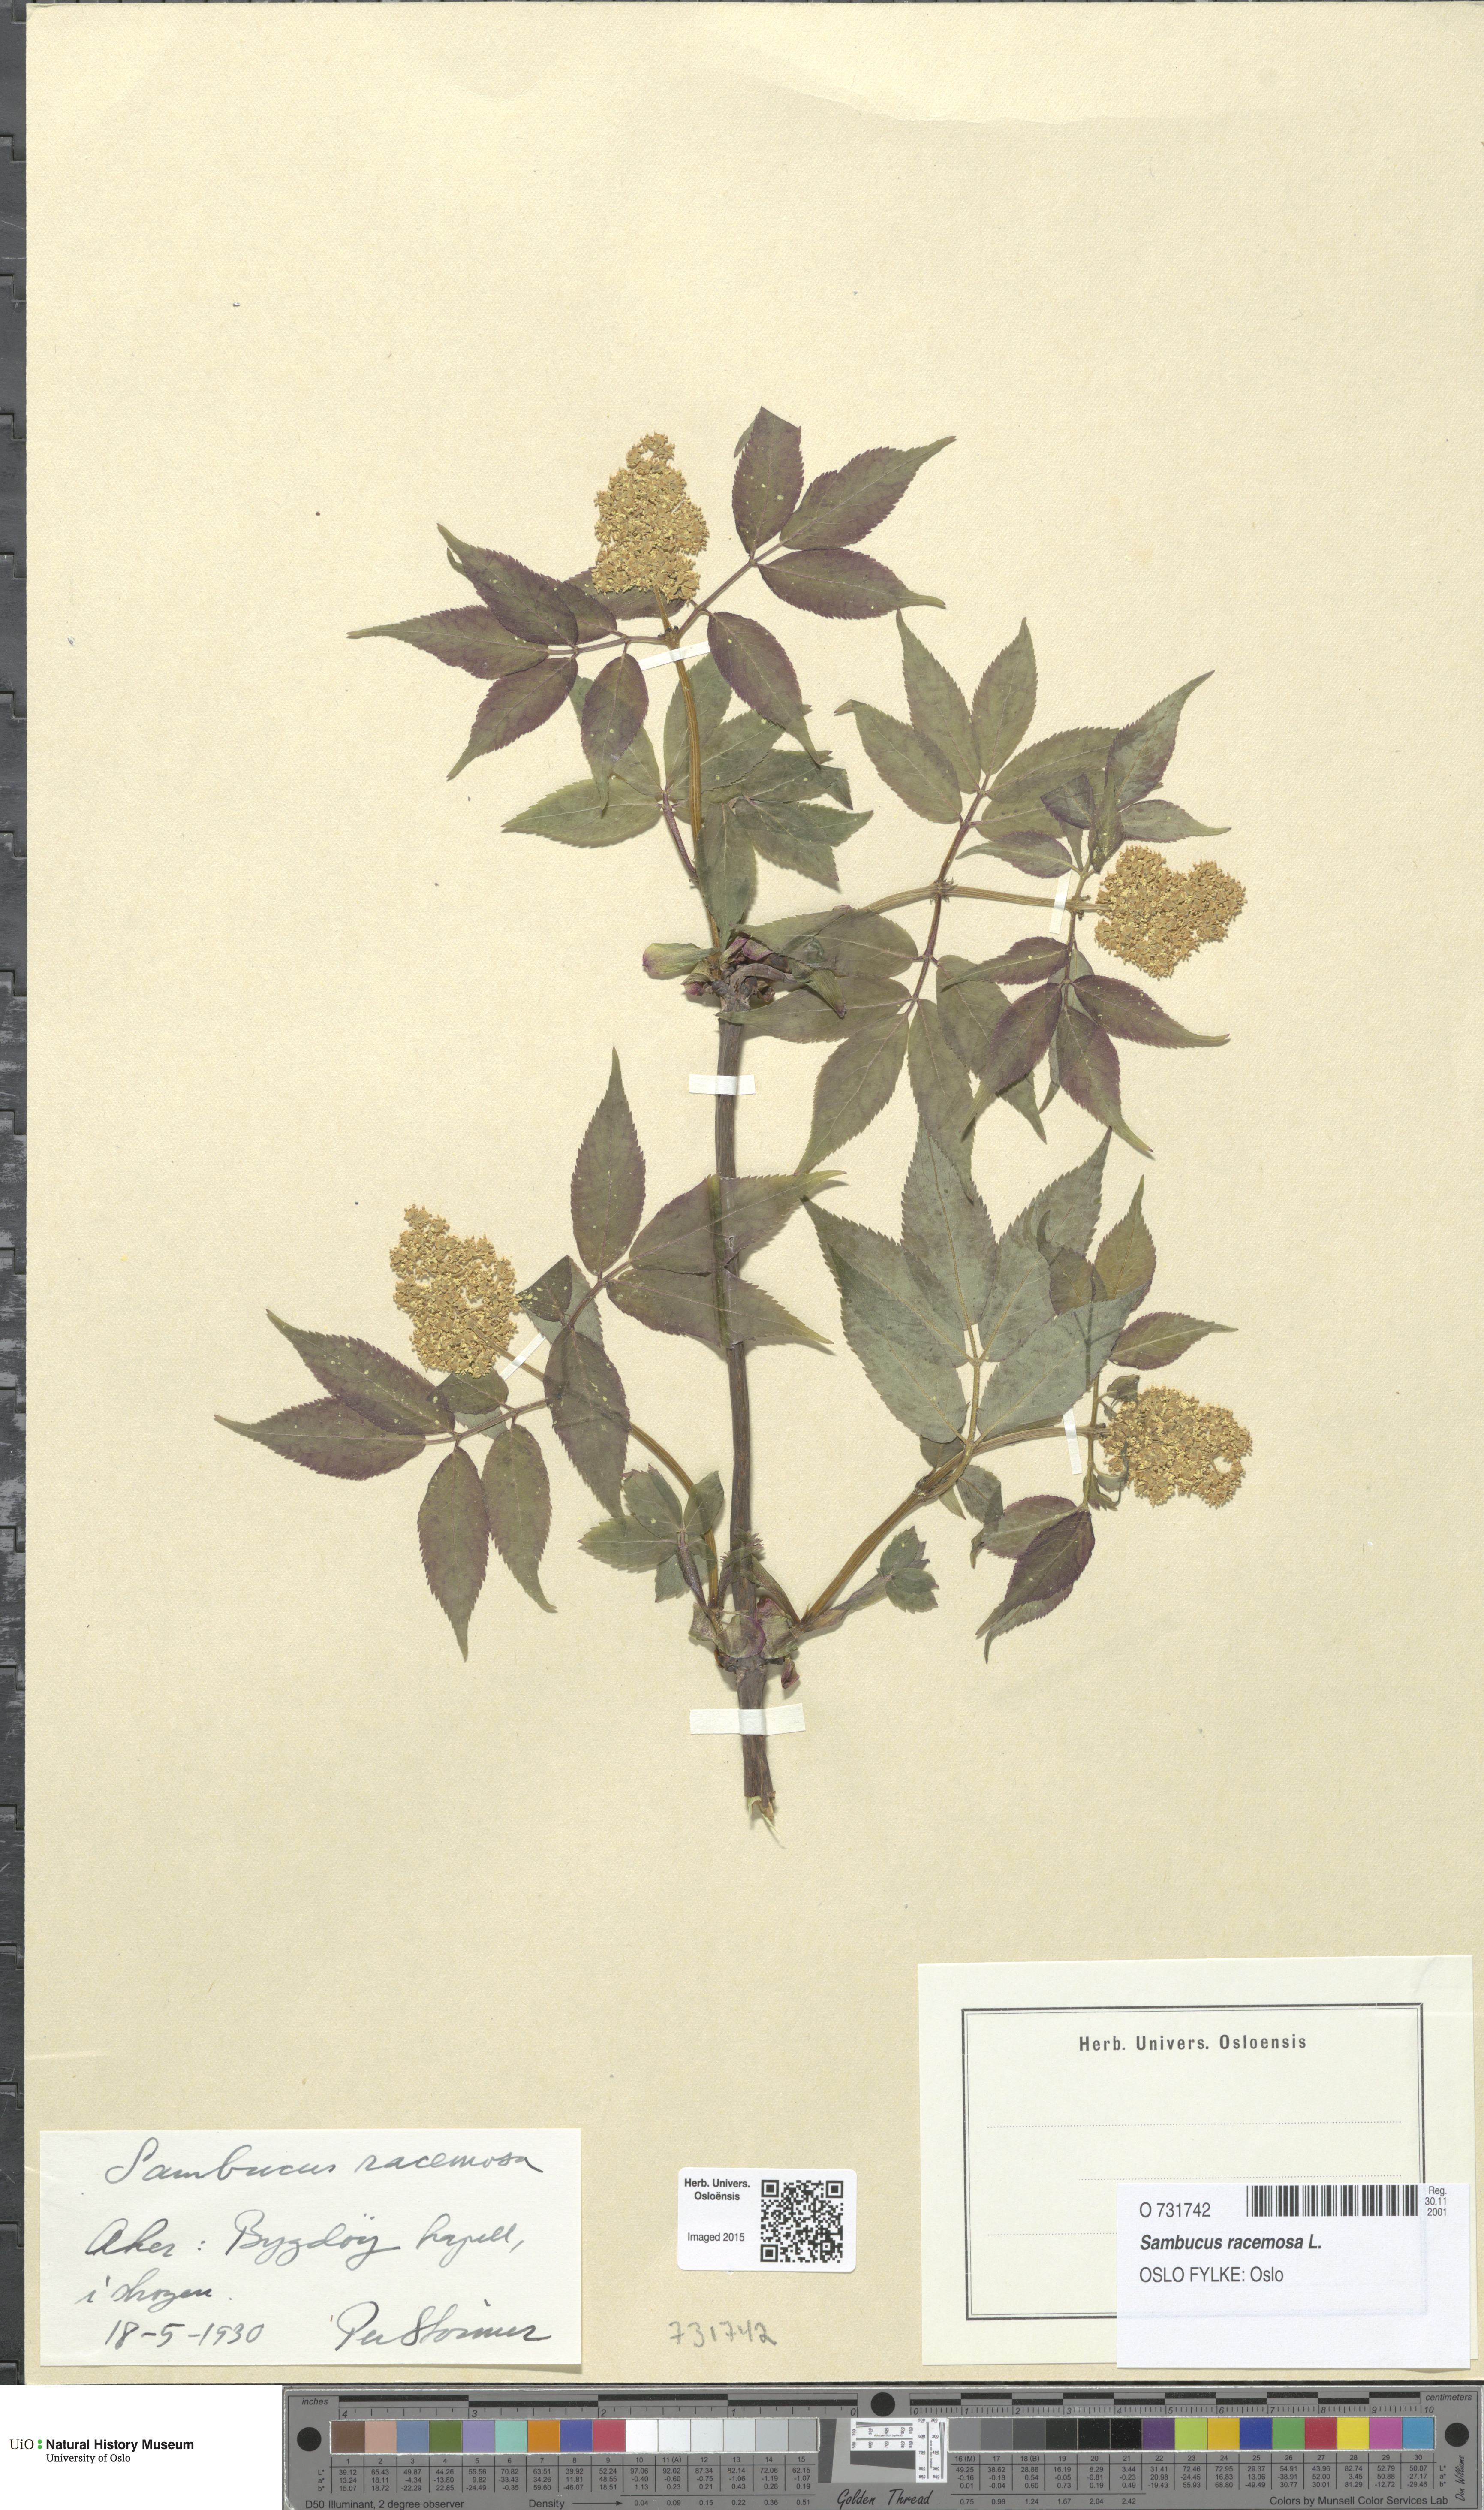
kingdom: Plantae
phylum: Tracheophyta
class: Magnoliopsida
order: Dipsacales
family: Viburnaceae
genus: Sambucus
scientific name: Sambucus racemosa
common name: Red-berried elder
